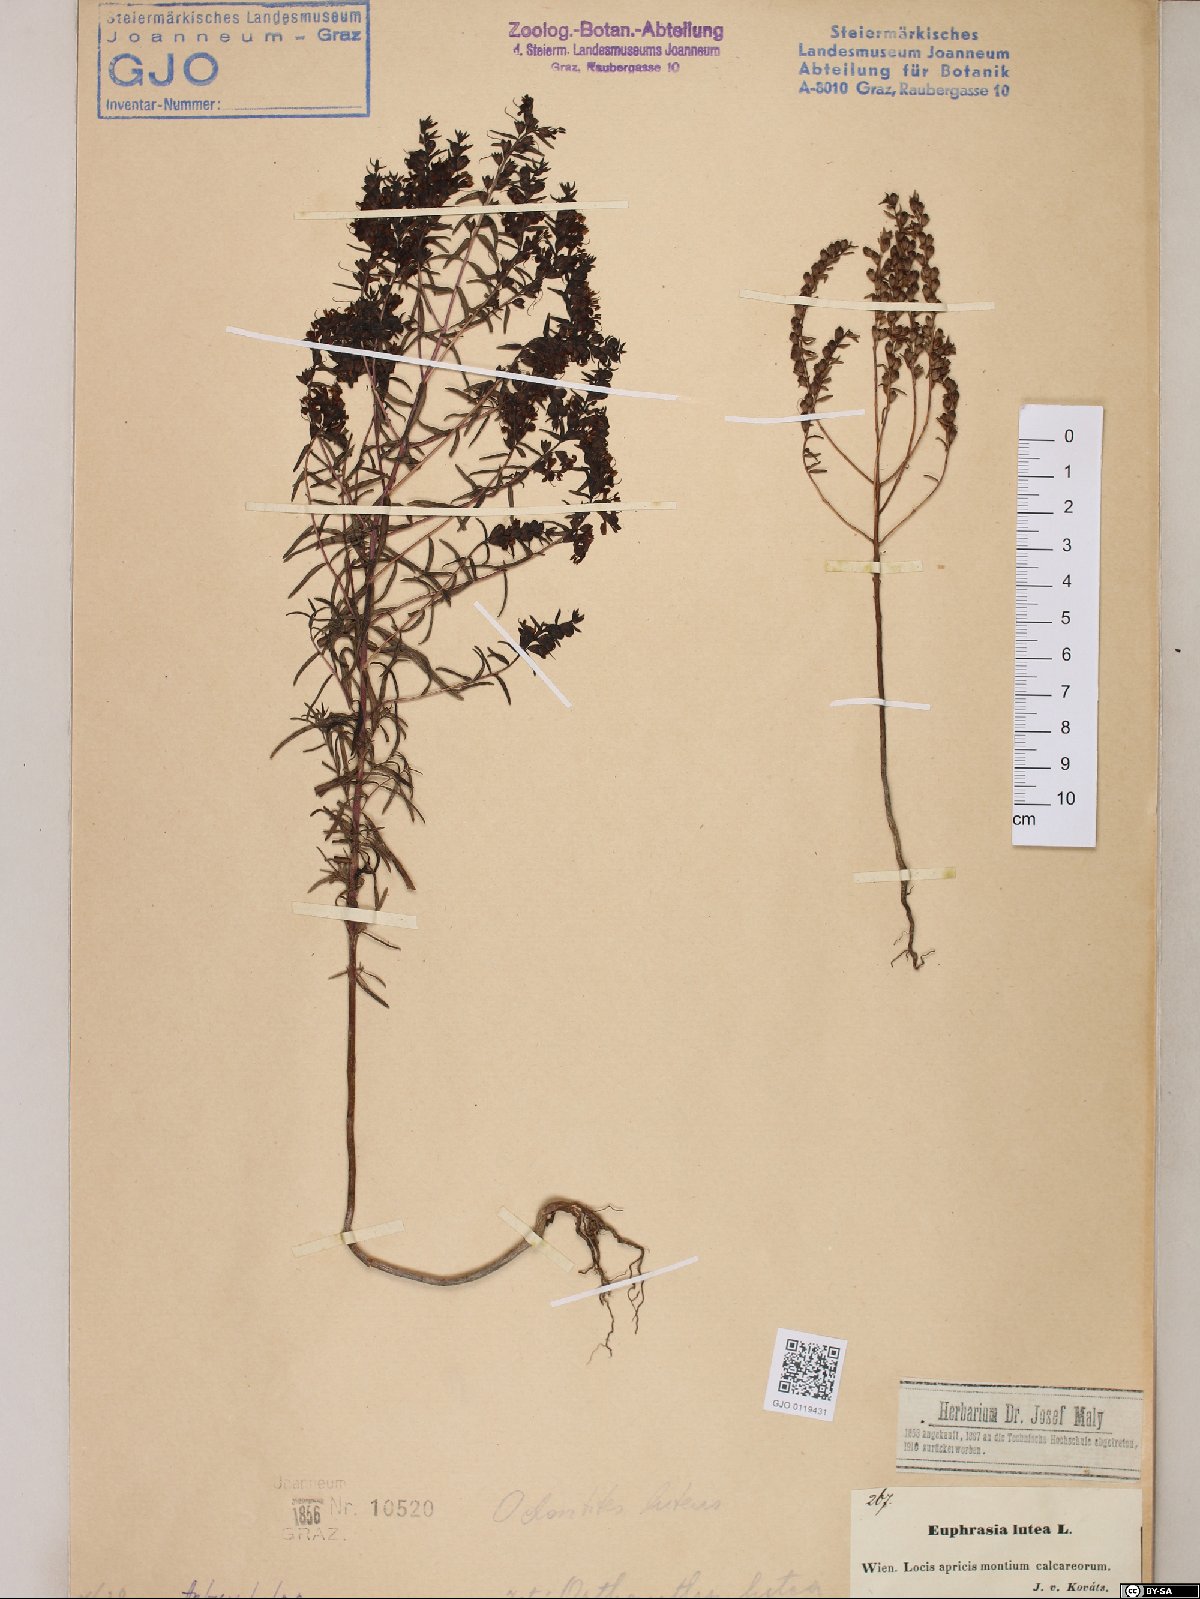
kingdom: Plantae
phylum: Tracheophyta
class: Magnoliopsida
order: Lamiales
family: Orobanchaceae
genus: Odontites
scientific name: Odontites luteus
